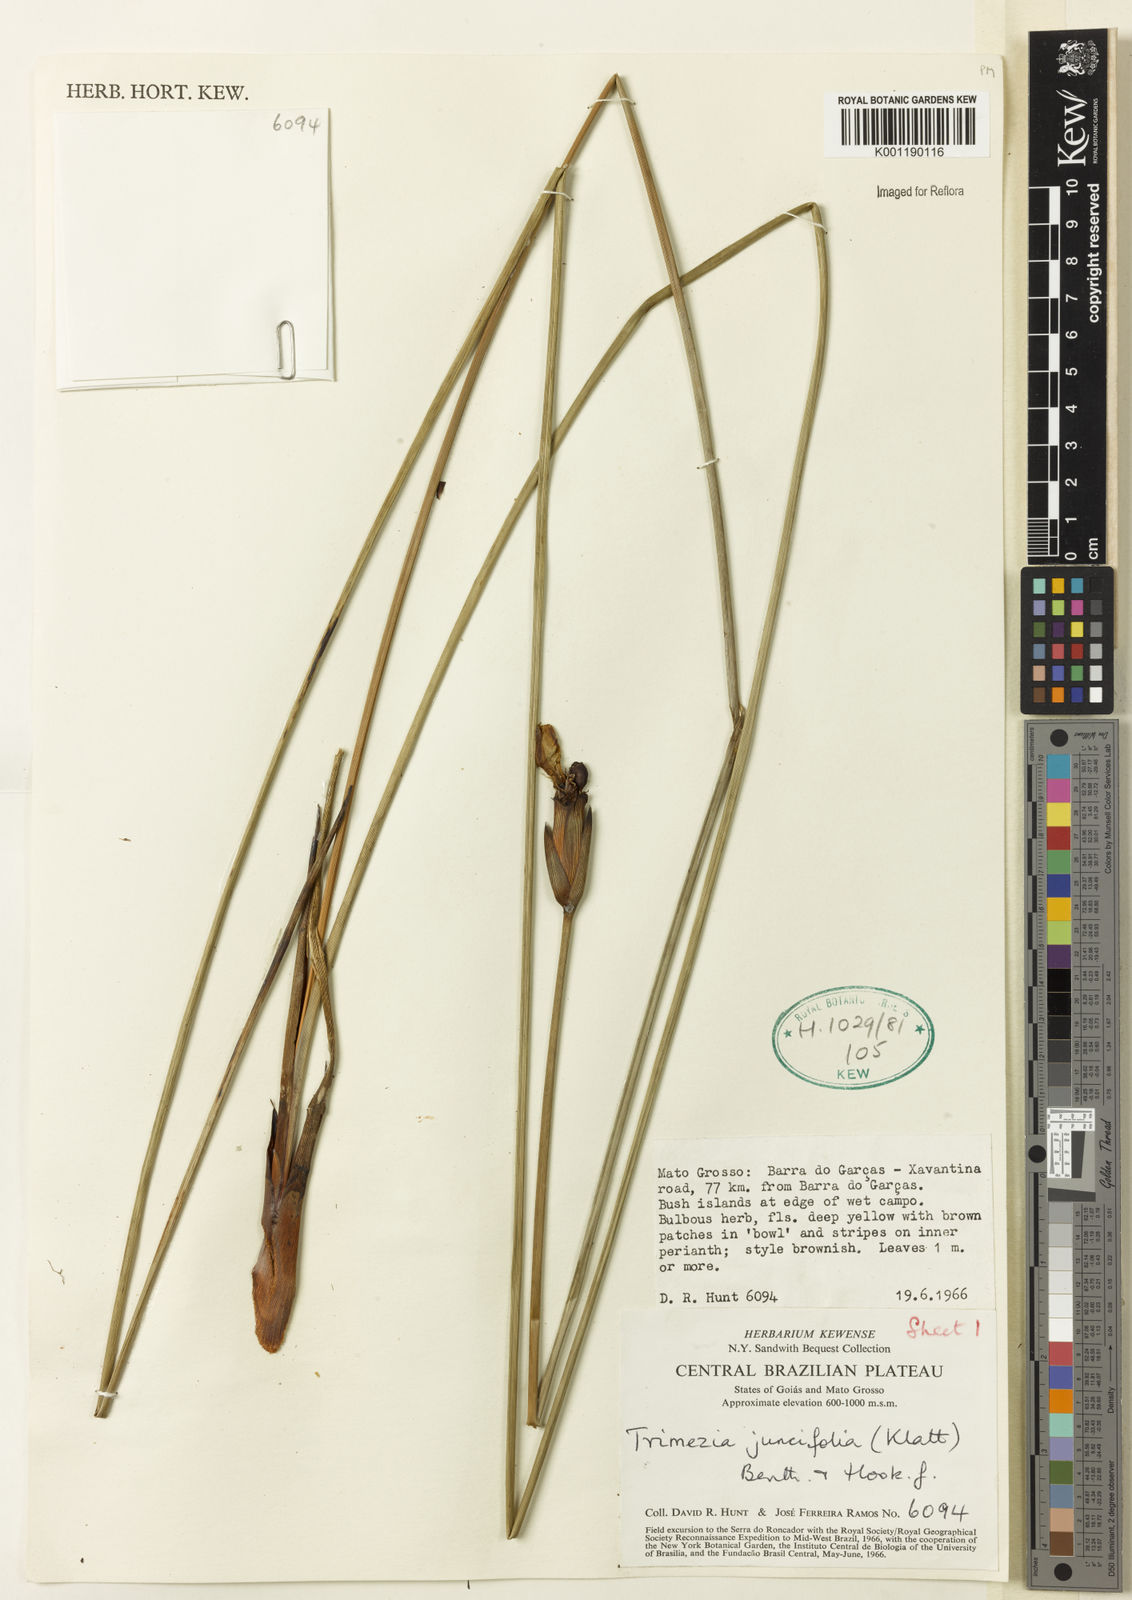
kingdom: Plantae
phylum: Tracheophyta
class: Liliopsida
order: Asparagales
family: Iridaceae
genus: Trimezia
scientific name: Trimezia juncifolia
